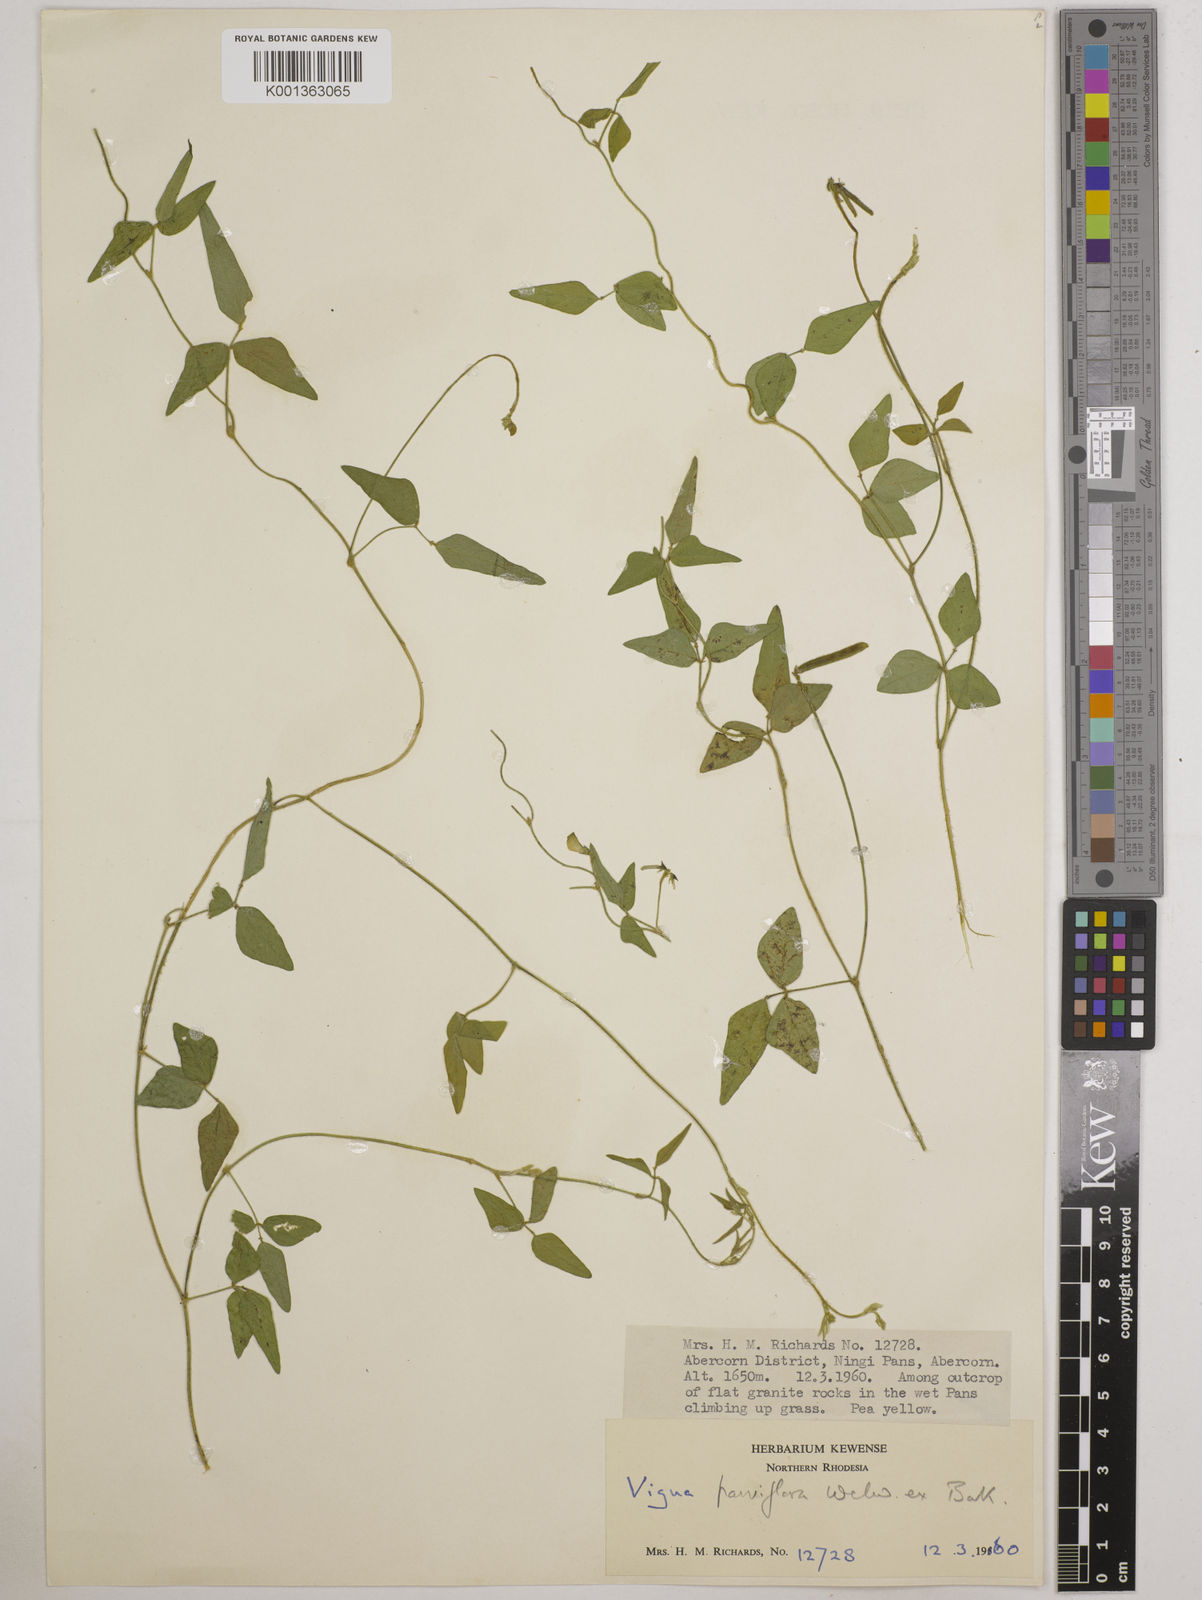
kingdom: Plantae
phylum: Tracheophyta
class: Magnoliopsida
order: Fabales
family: Fabaceae
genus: Vigna
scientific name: Vigna
